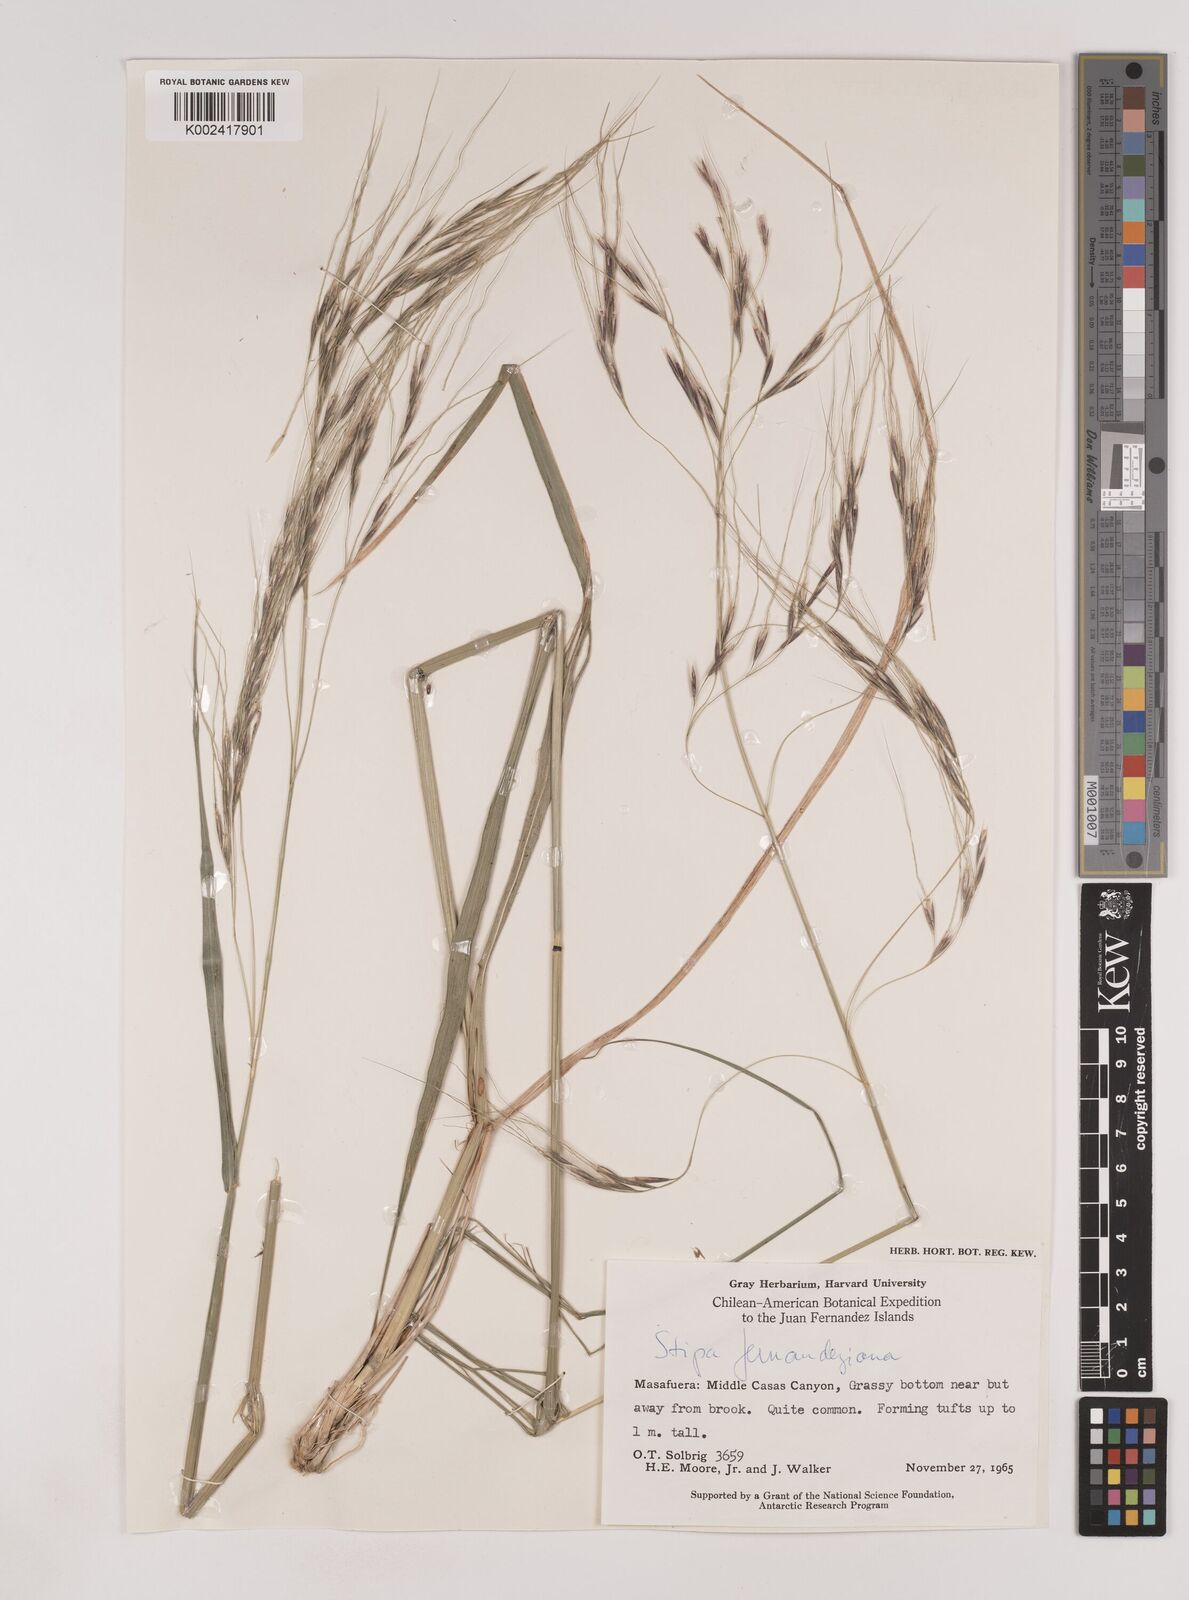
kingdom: Plantae
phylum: Tracheophyta
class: Liliopsida
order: Poales
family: Poaceae
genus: Nassella
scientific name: Nassella neesiana
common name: American needle-grass
